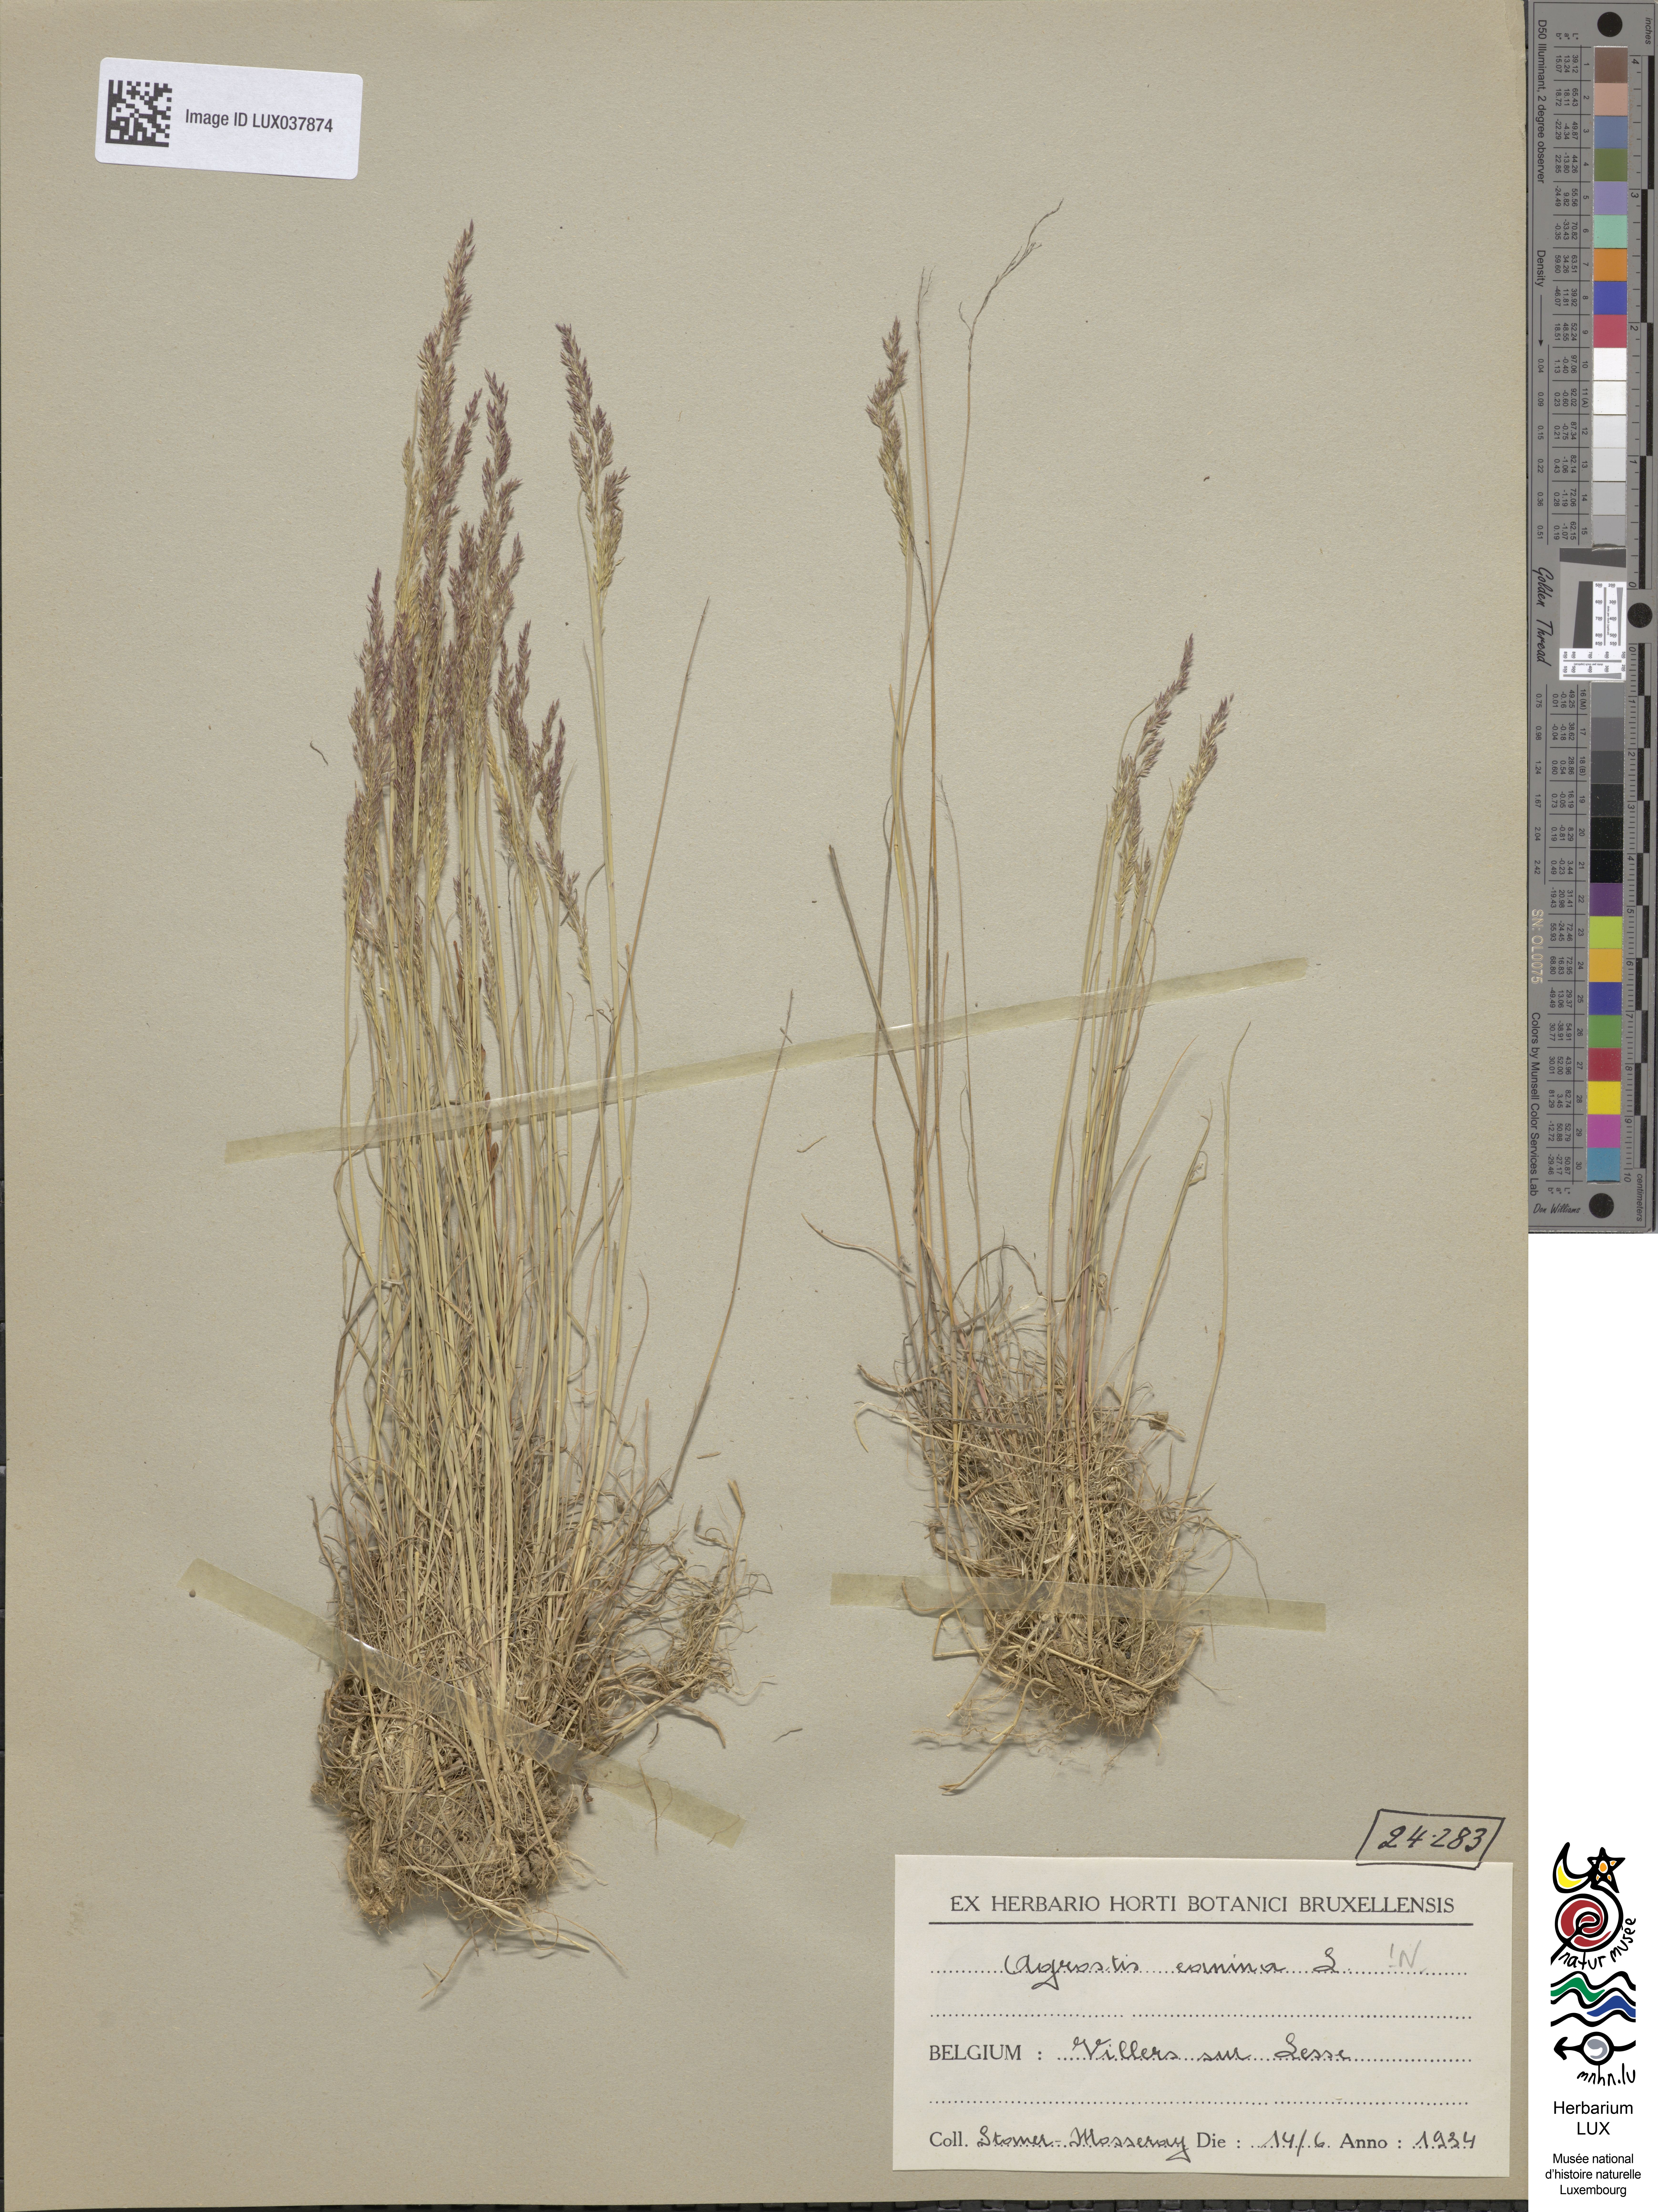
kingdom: Plantae
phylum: Tracheophyta
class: Liliopsida
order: Poales
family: Poaceae
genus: Agrostis
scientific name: Agrostis canina
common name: Velvet bent
